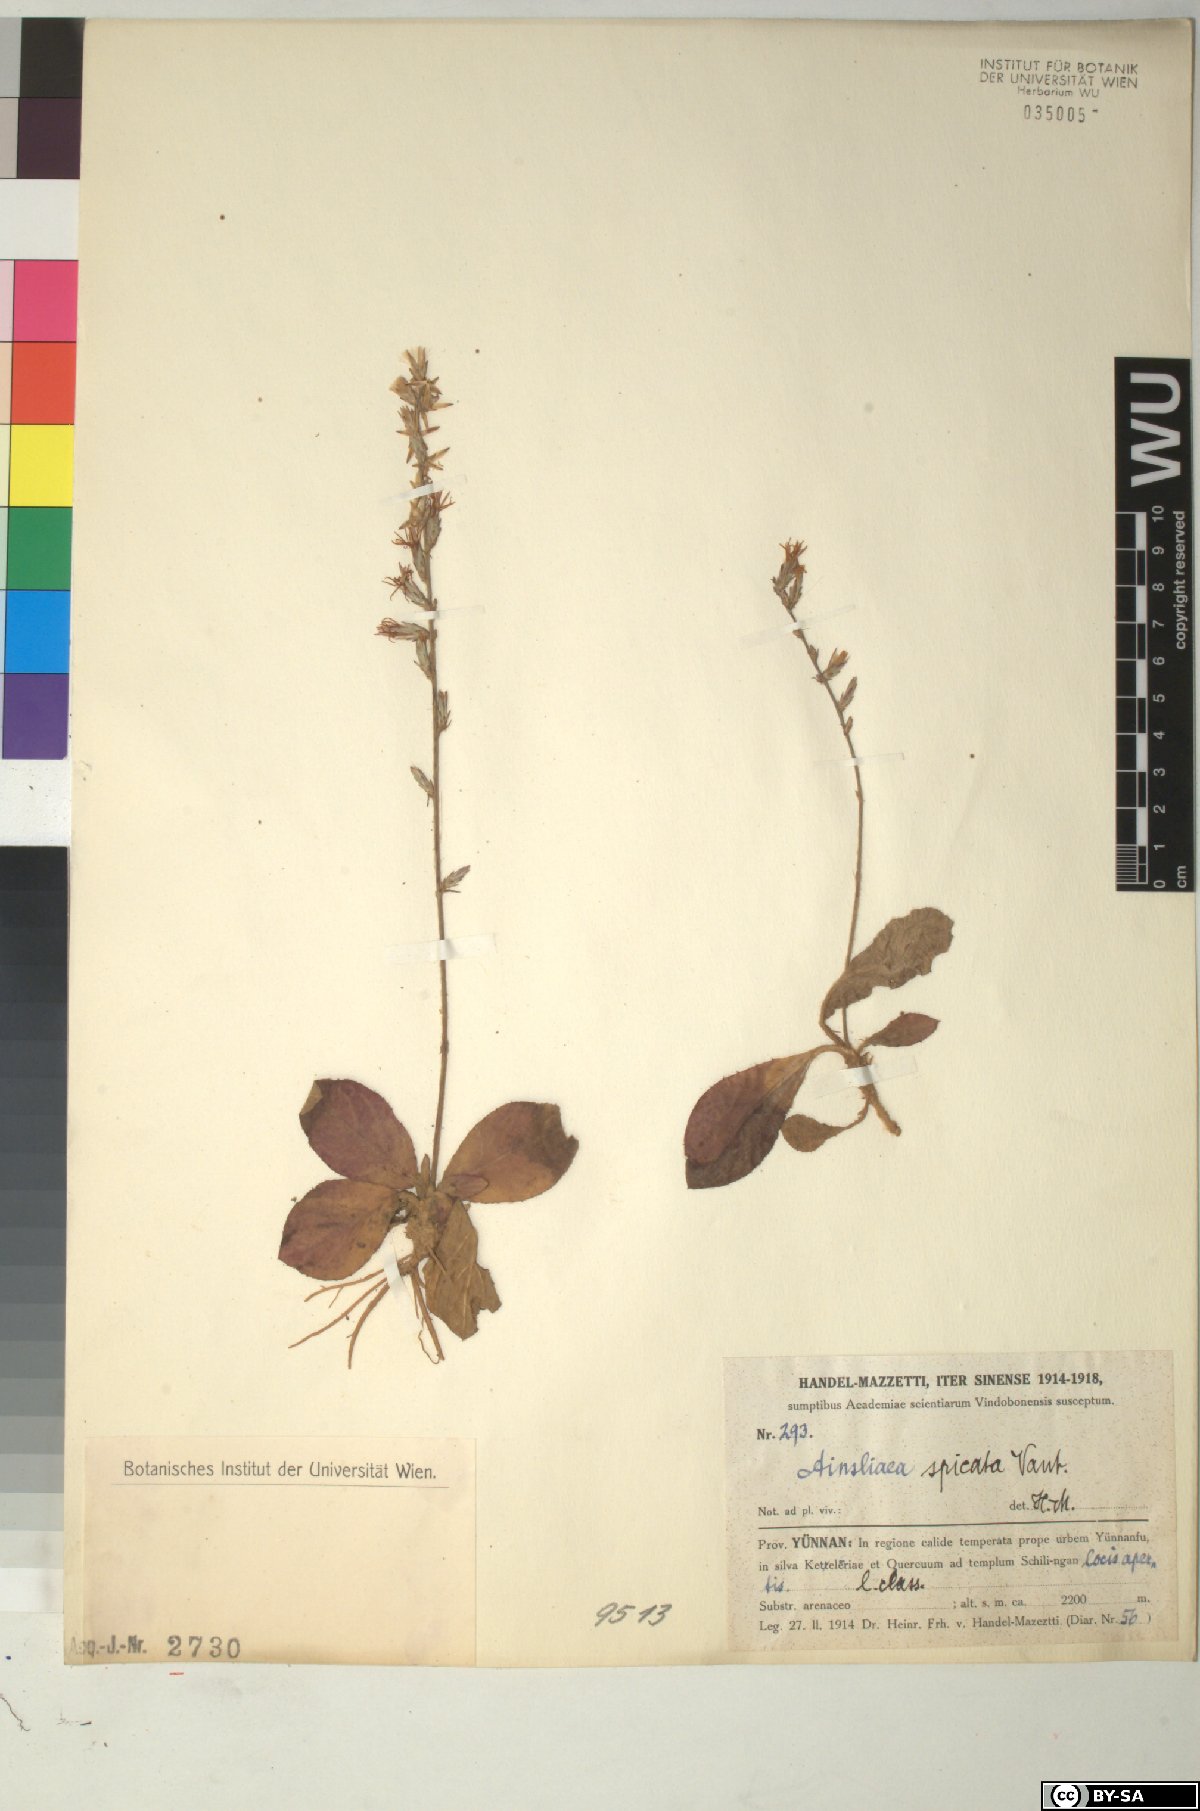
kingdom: Plantae
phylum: Tracheophyta
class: Magnoliopsida
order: Asterales
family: Asteraceae
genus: Ainsliaea
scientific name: Ainsliaea spicata
